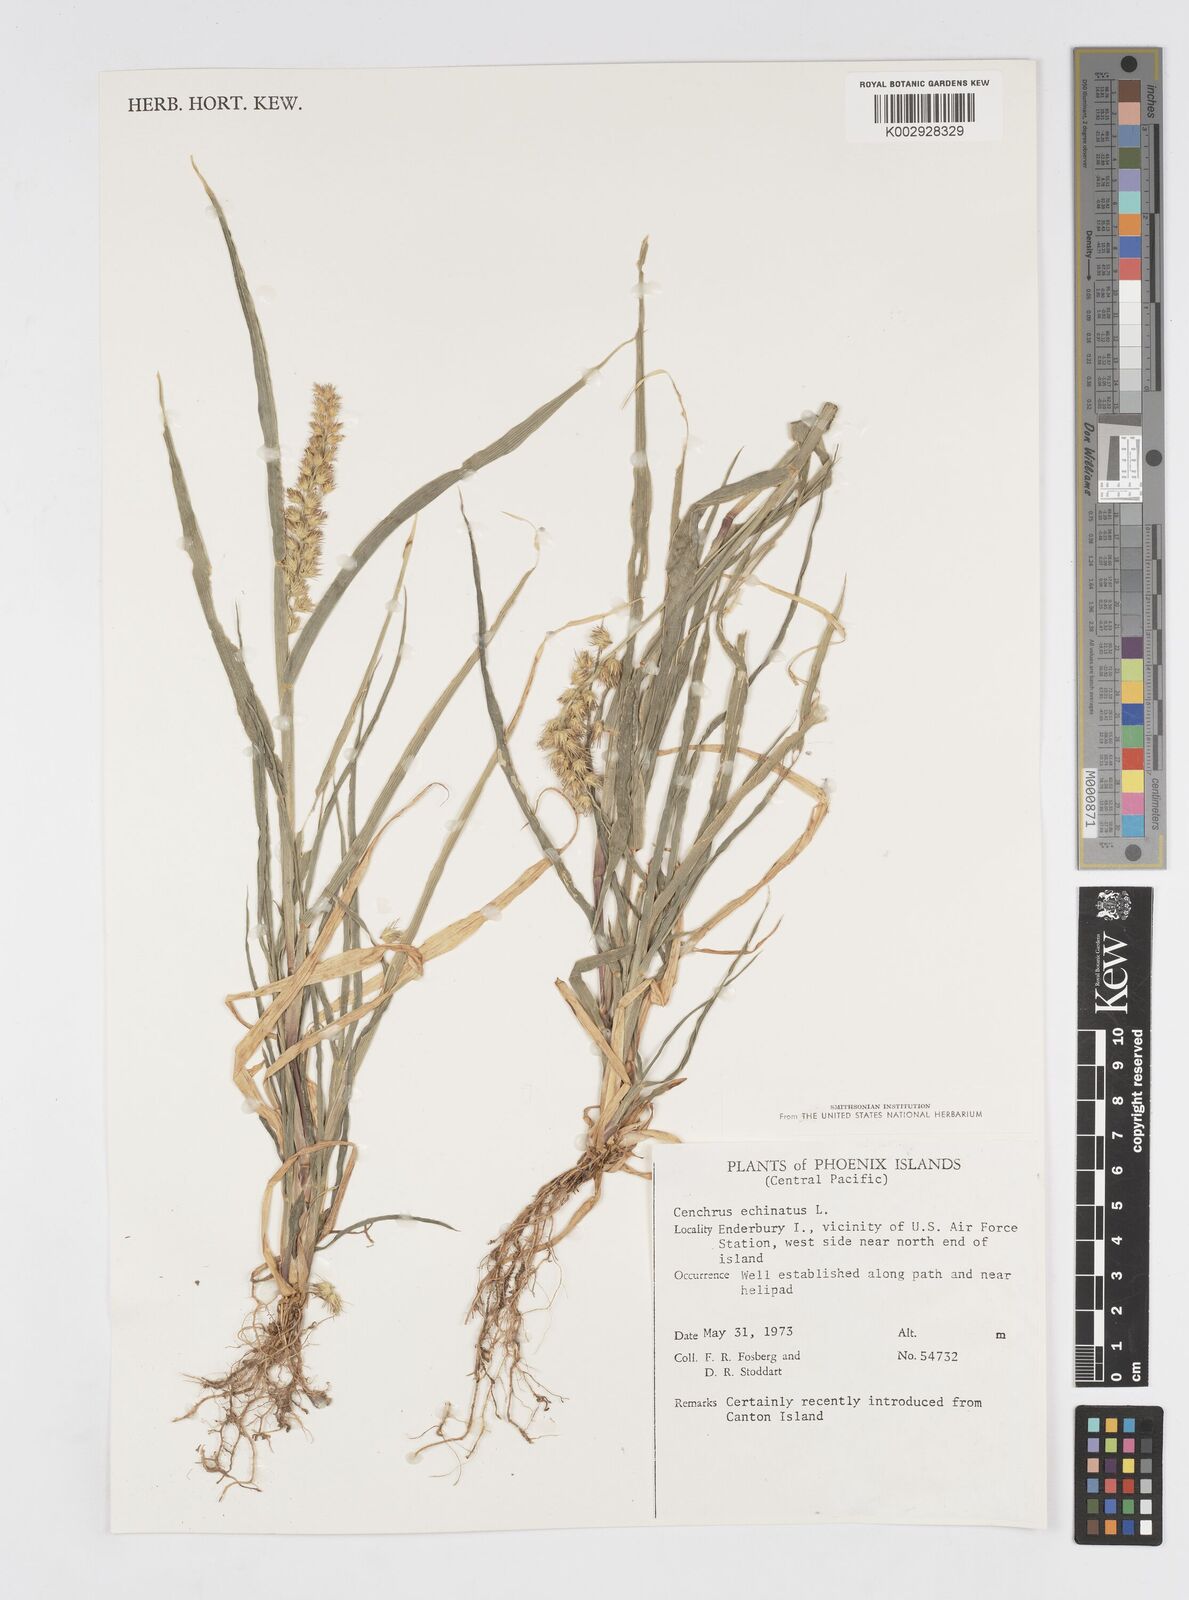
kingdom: Plantae
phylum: Tracheophyta
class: Liliopsida
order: Poales
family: Poaceae
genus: Cenchrus
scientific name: Cenchrus echinatus
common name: Southern sandbur
